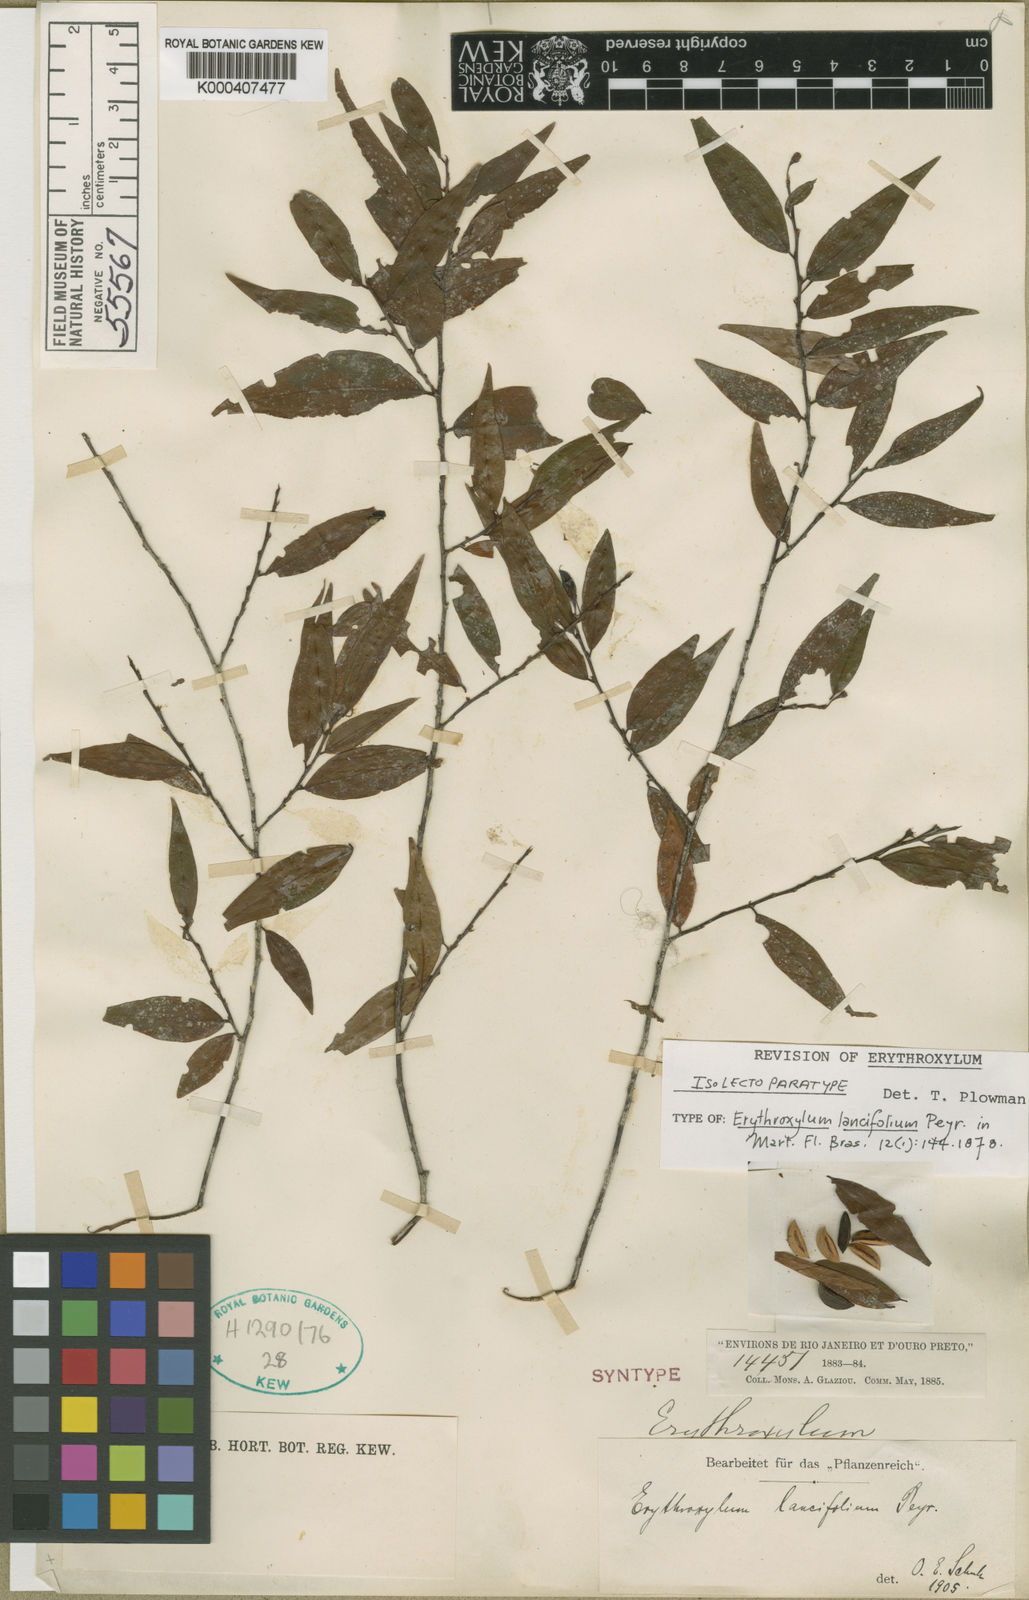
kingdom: Plantae
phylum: Tracheophyta
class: Magnoliopsida
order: Malpighiales
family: Erythroxylaceae
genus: Erythroxylum
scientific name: Erythroxylum lancifolium
